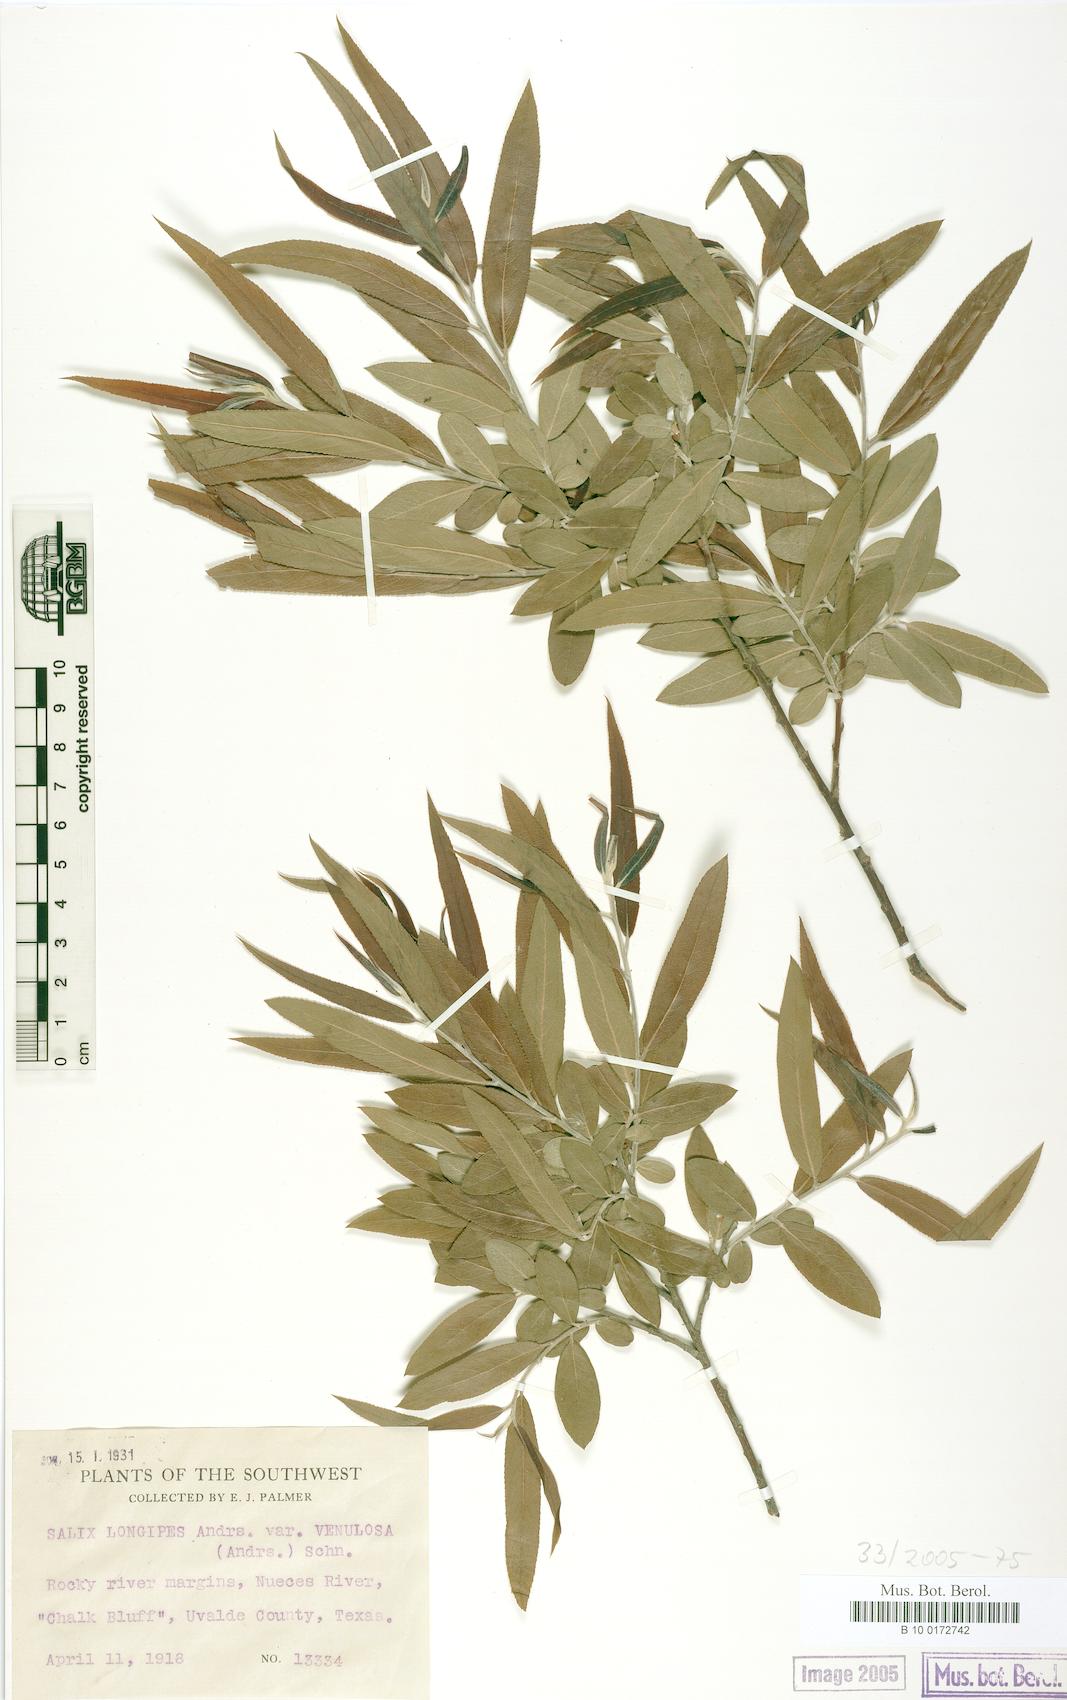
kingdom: Plantae
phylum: Tracheophyta
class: Magnoliopsida
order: Malpighiales
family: Salicaceae
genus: Salix
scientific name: Salix caroliniana
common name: Carolina willow
